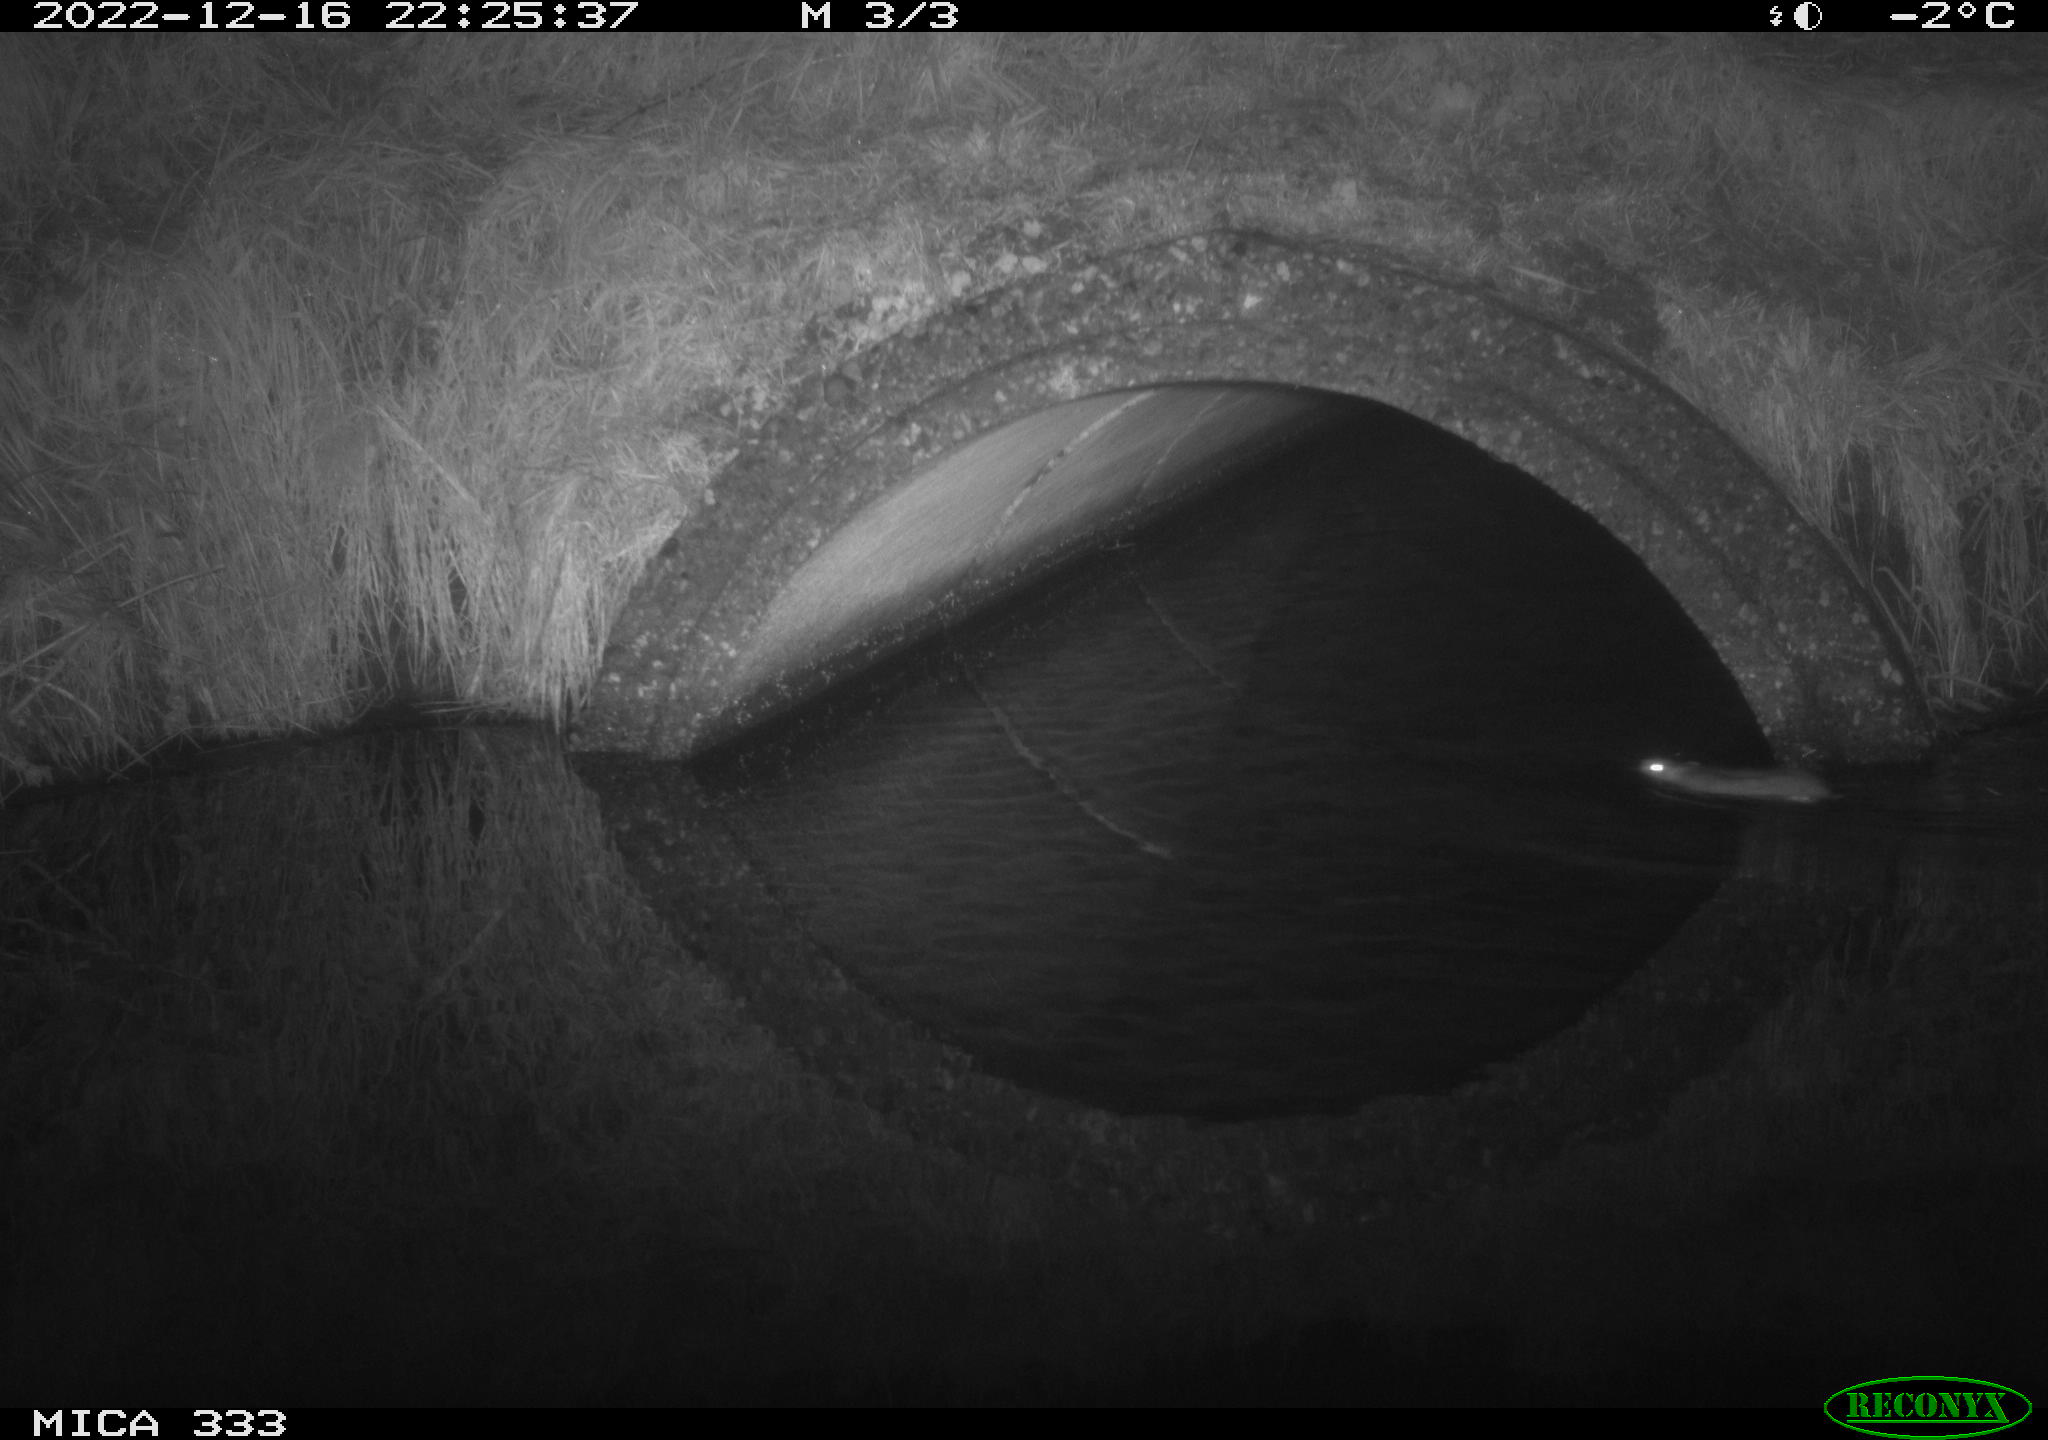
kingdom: Animalia
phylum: Chordata
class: Mammalia
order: Rodentia
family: Muridae
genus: Rattus
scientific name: Rattus norvegicus
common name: Brown rat
